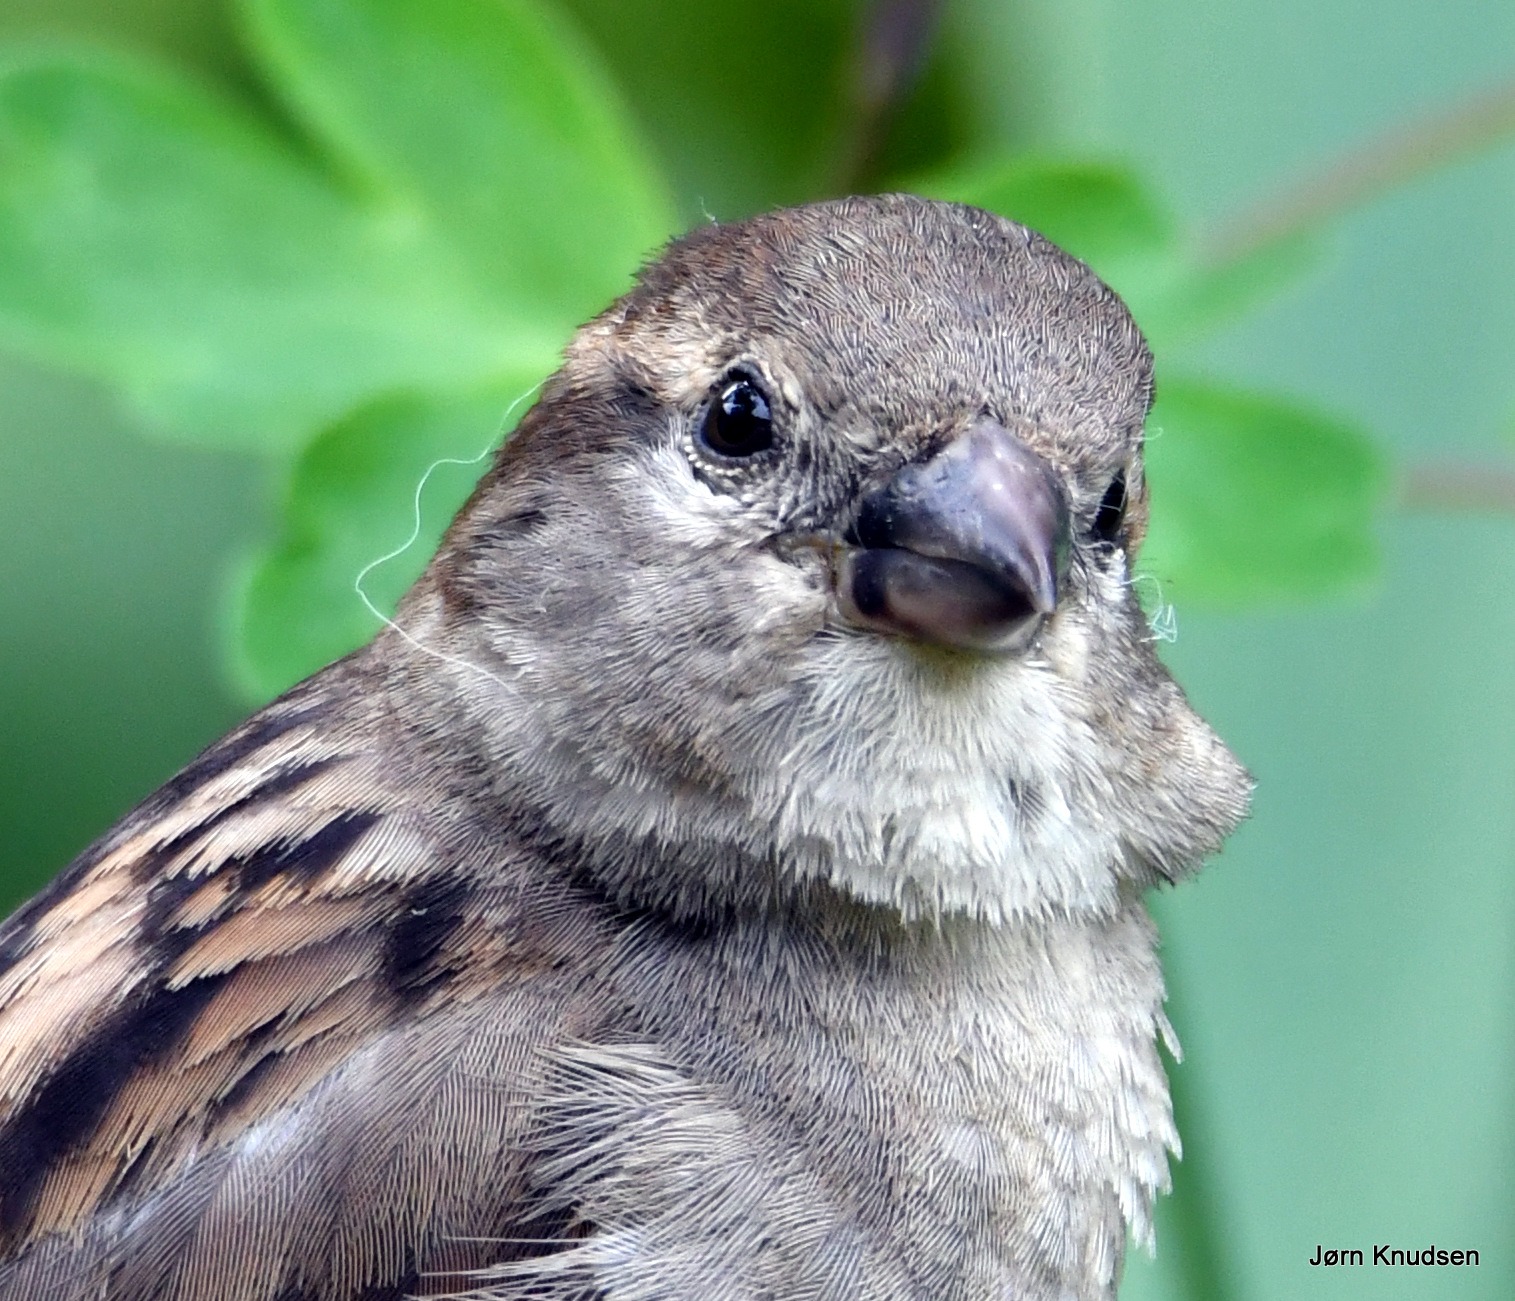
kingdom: Animalia
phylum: Chordata
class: Aves
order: Passeriformes
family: Passeridae
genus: Passer
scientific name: Passer domesticus
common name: Gråspurv
